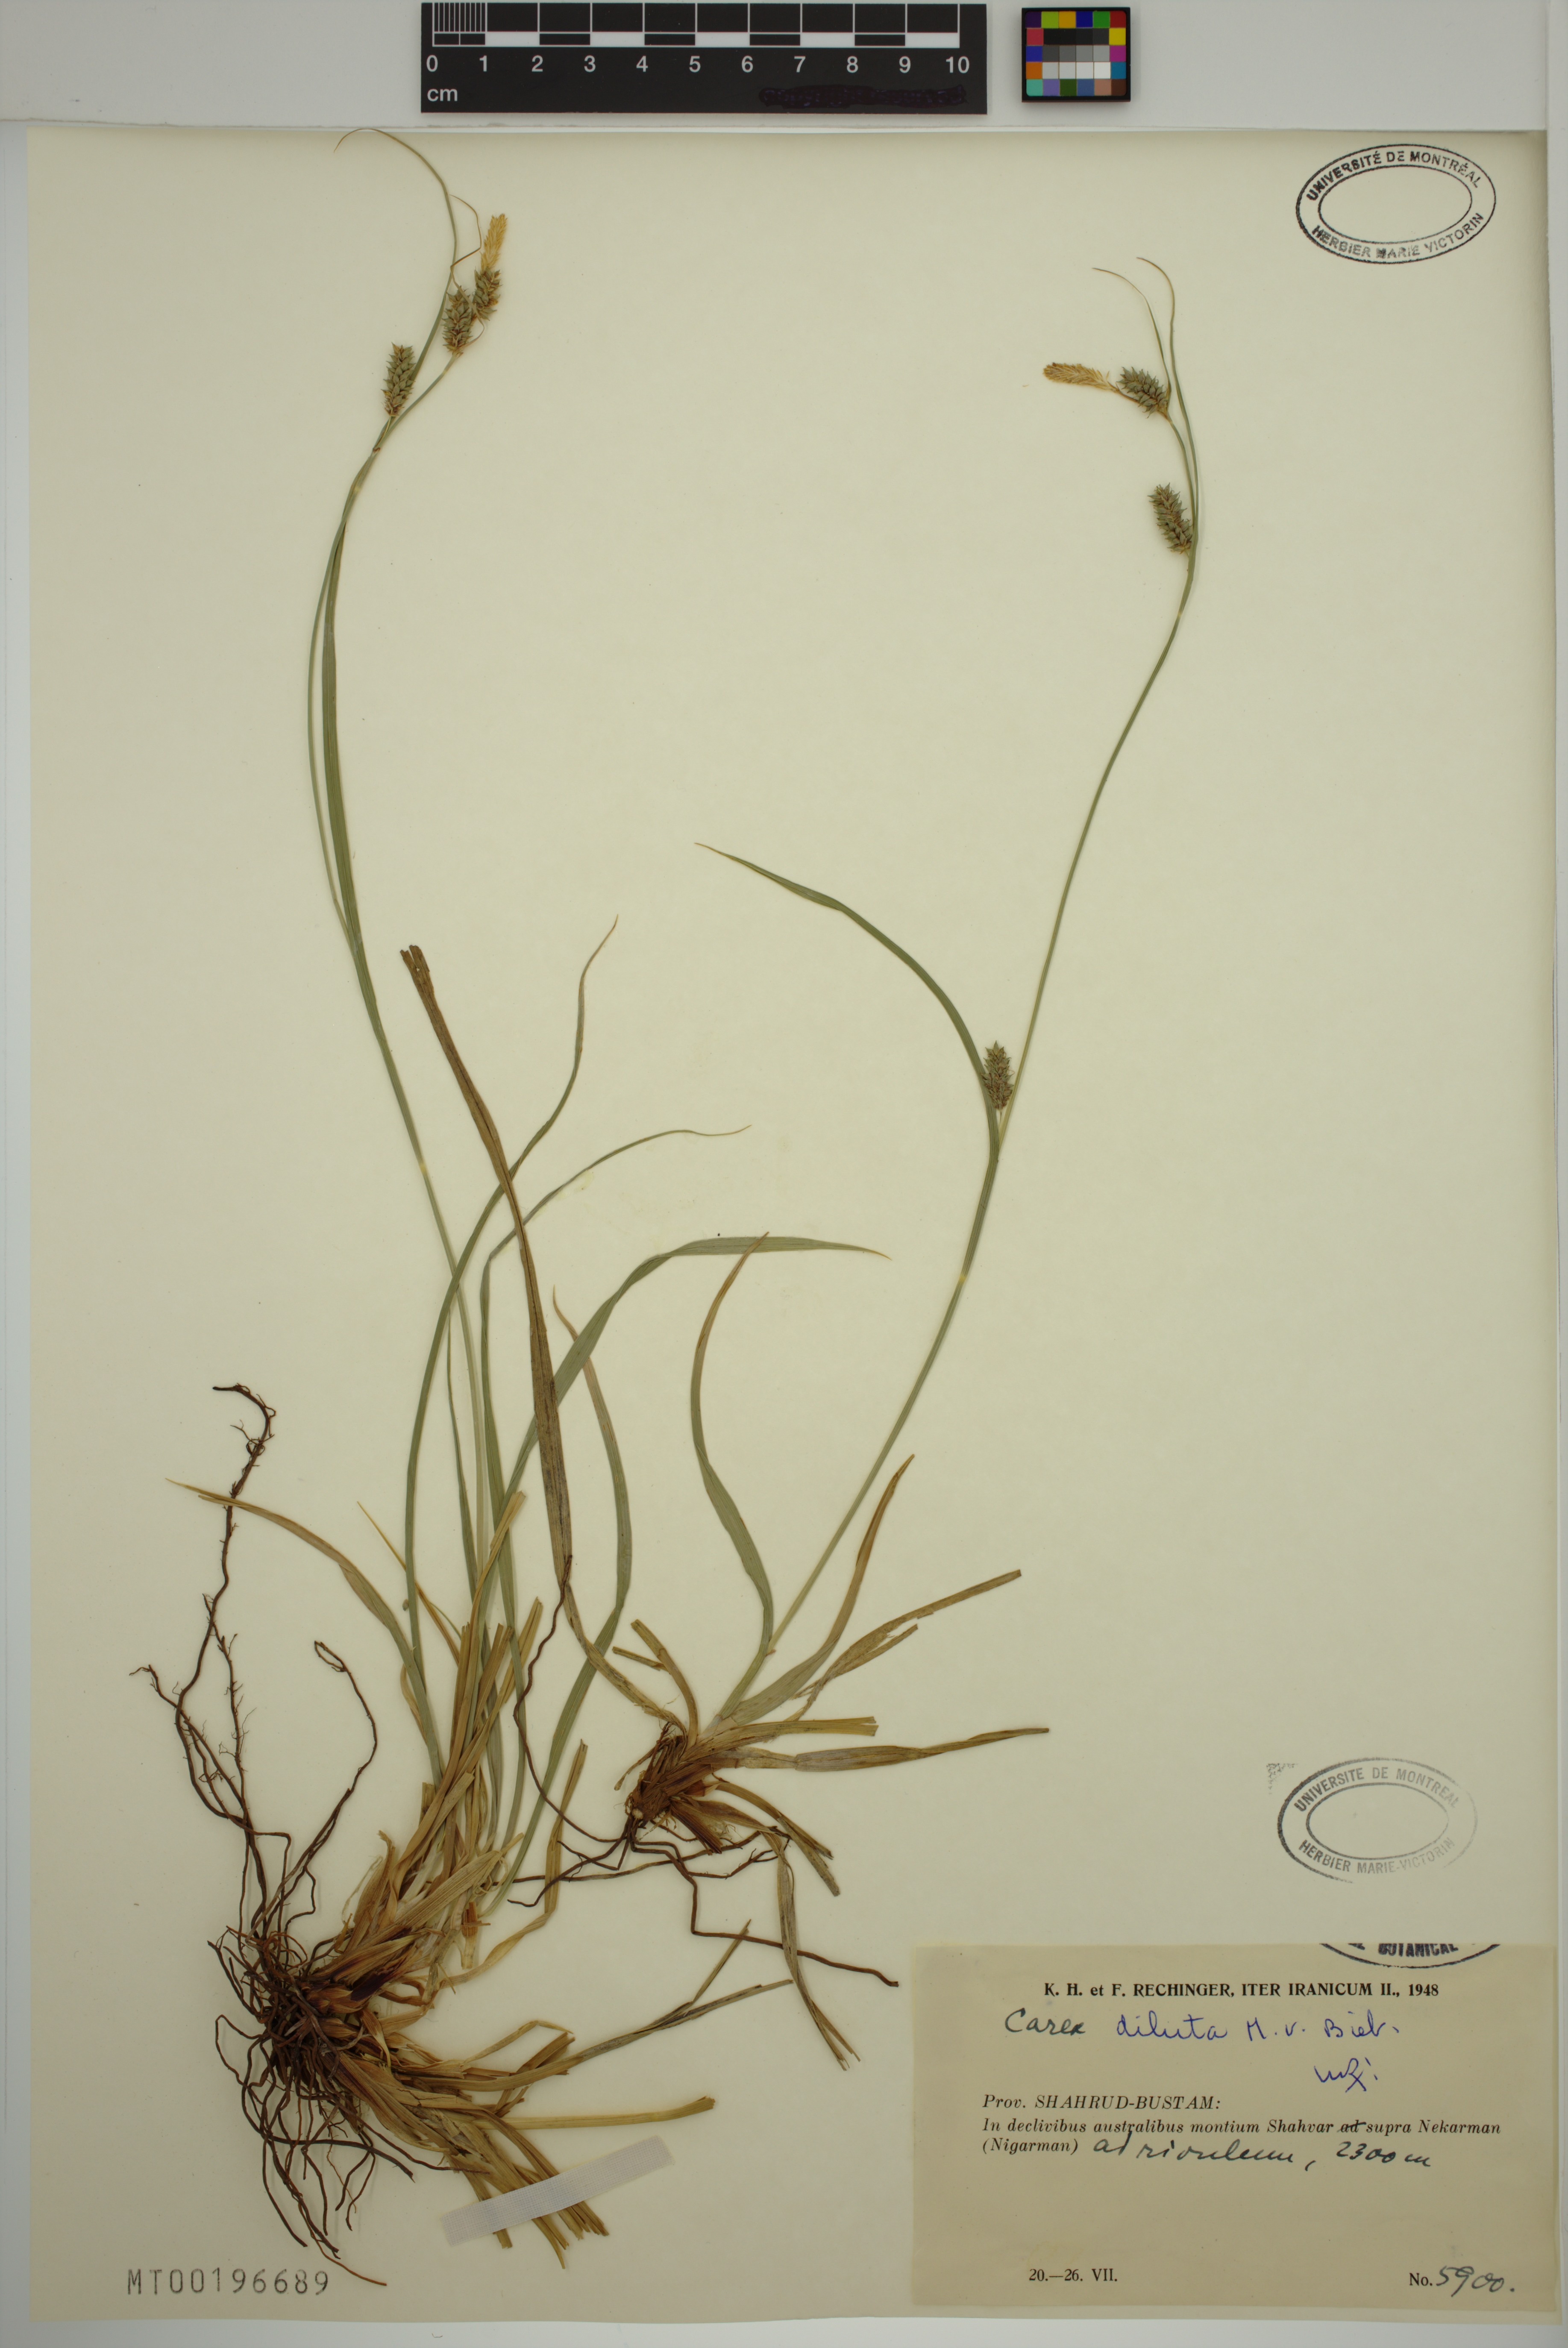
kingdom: Plantae
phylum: Tracheophyta
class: Liliopsida
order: Poales
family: Cyperaceae
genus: Carex
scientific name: Carex diluta
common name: Sedge
